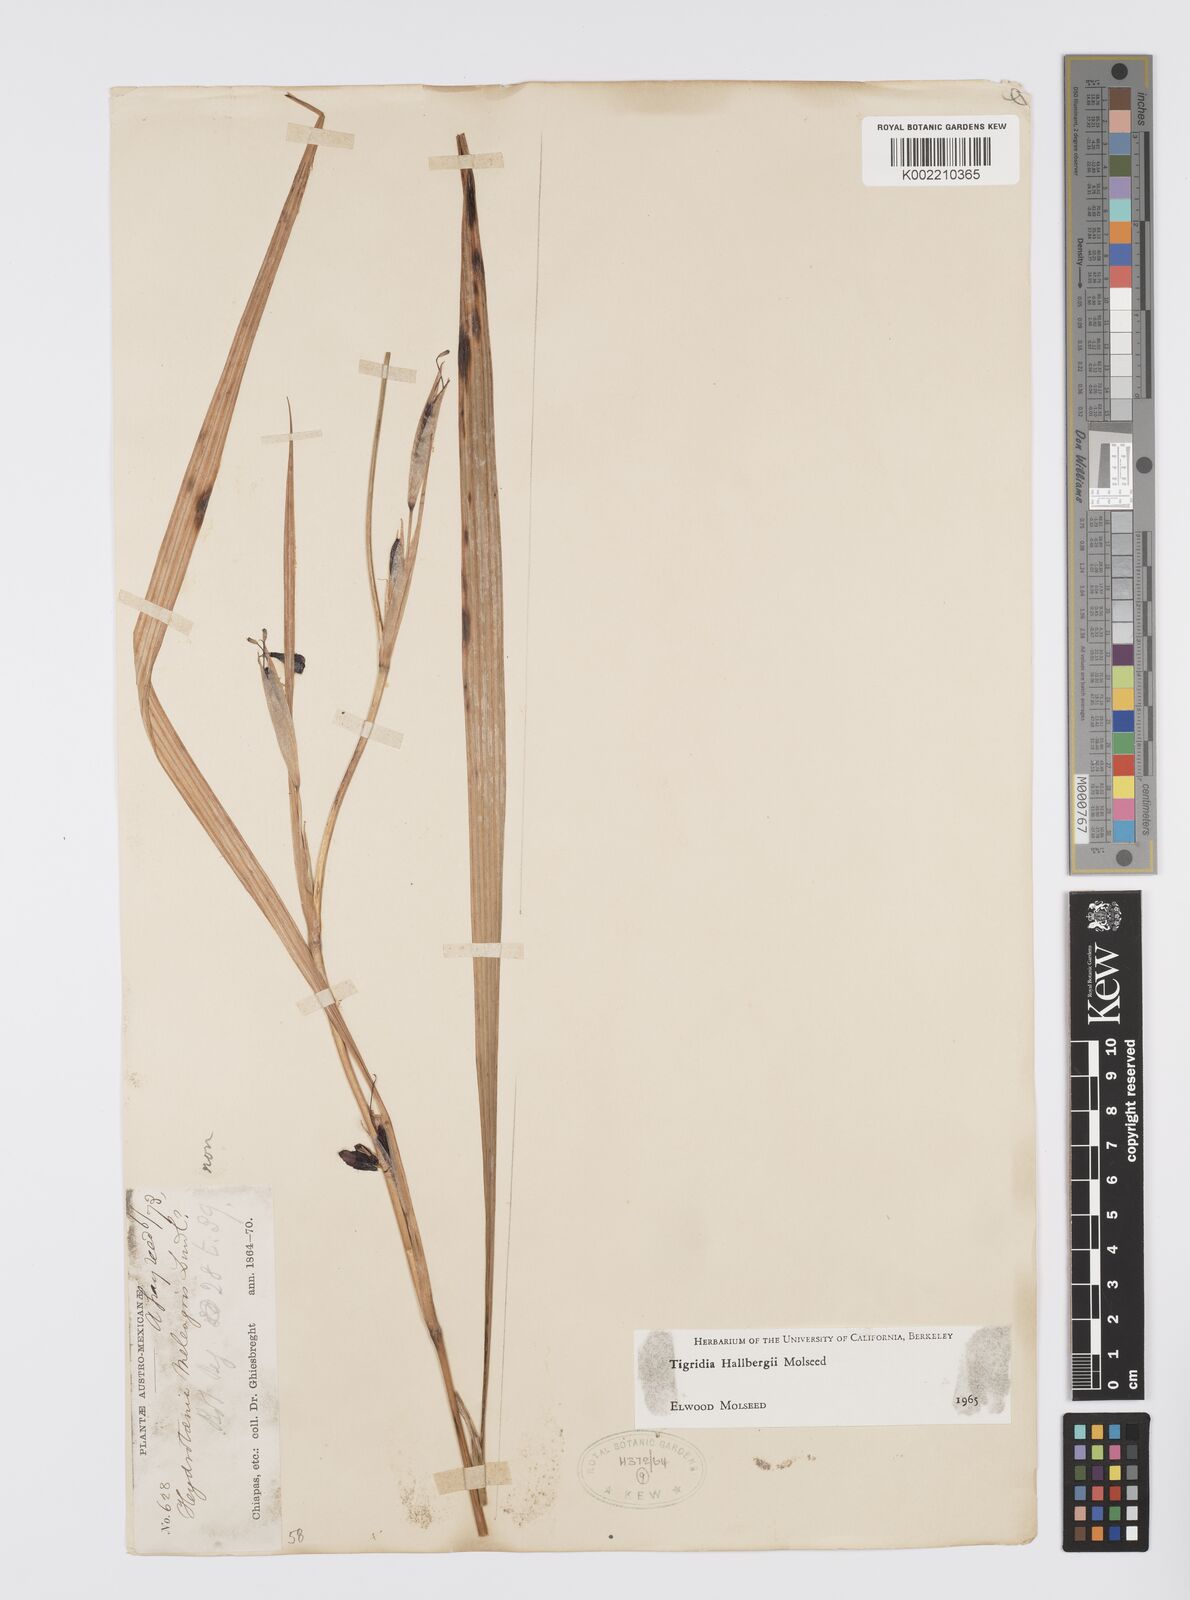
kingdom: Plantae
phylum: Tracheophyta
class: Liliopsida
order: Asparagales
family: Iridaceae
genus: Tigridia
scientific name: Tigridia hallbergii
